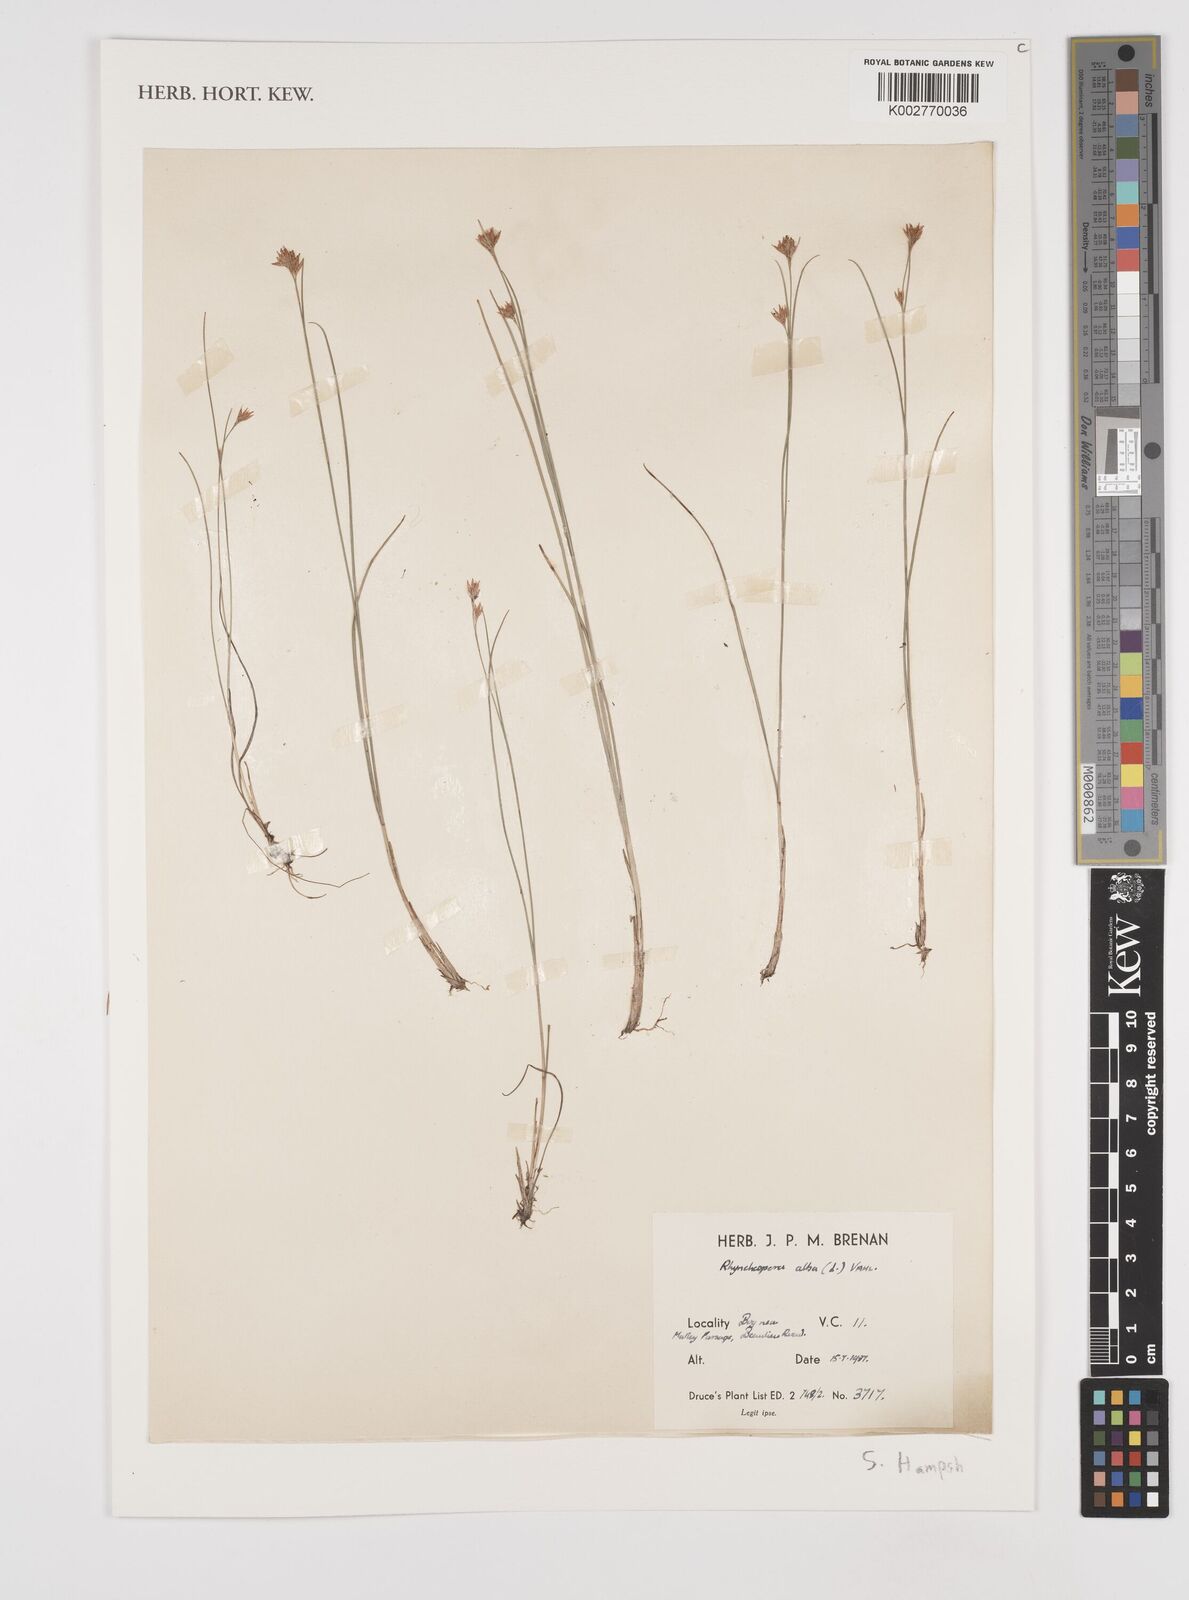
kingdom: Plantae
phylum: Tracheophyta
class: Liliopsida
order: Poales
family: Cyperaceae
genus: Rhynchospora
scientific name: Rhynchospora alba
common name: White beak-sedge
